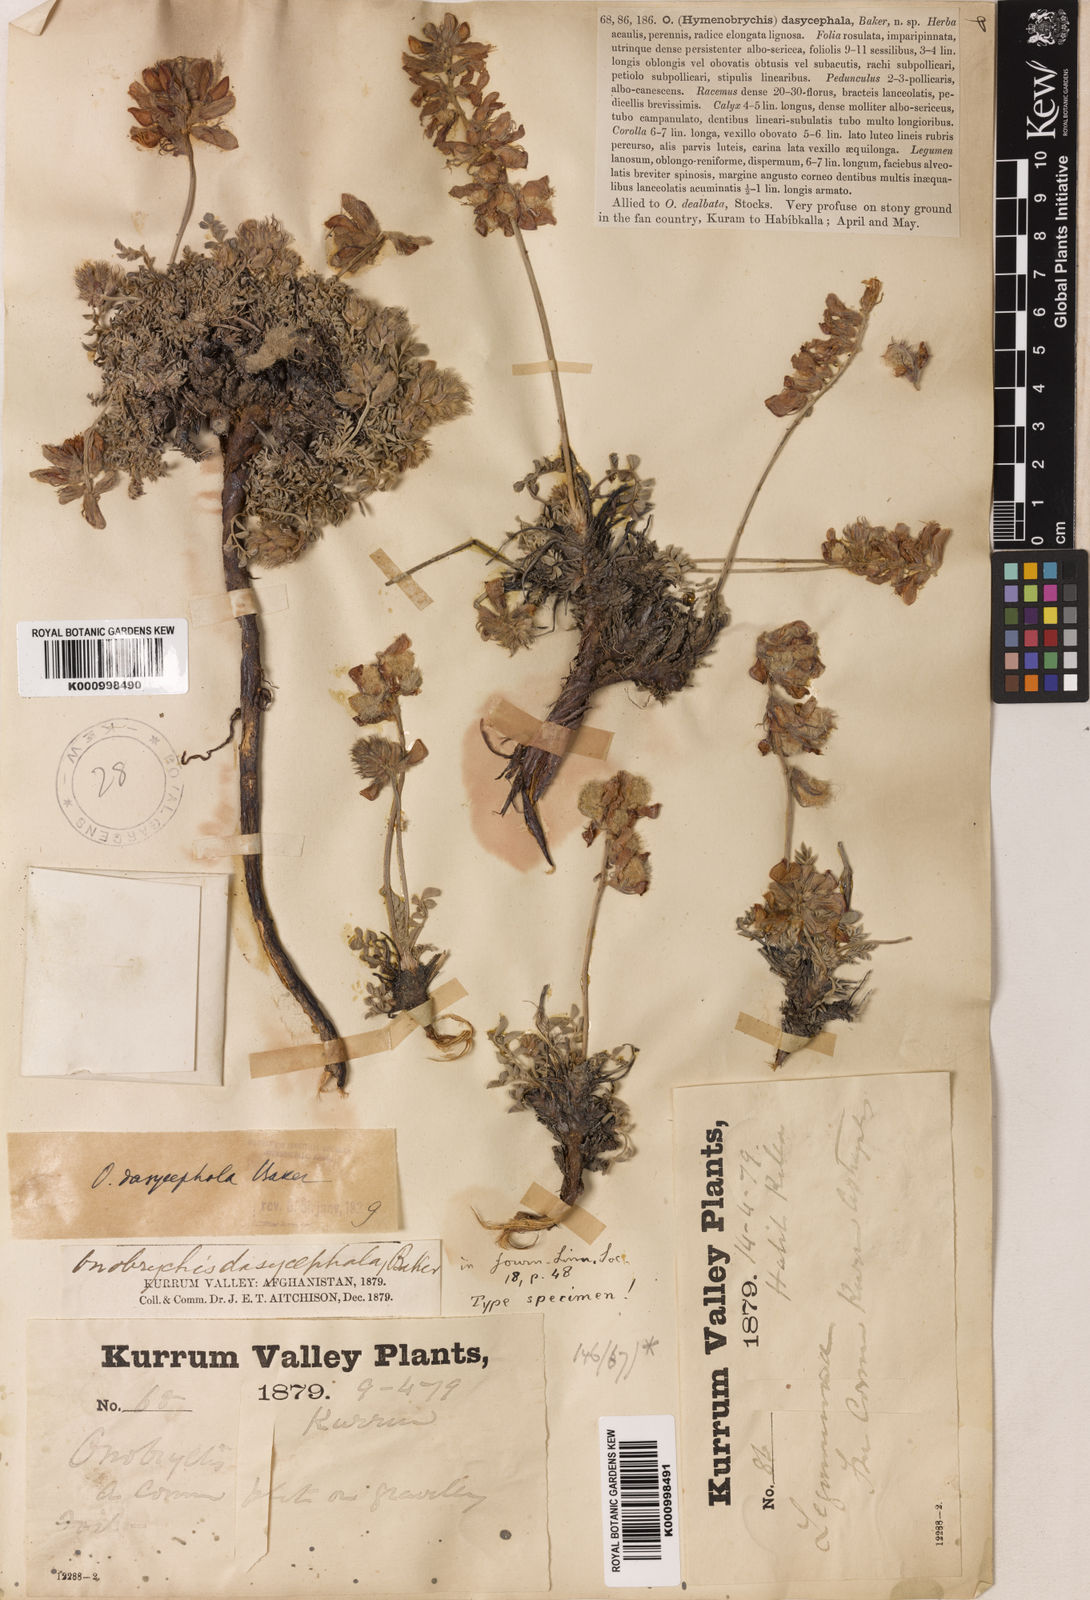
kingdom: Plantae
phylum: Tracheophyta
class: Magnoliopsida
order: Fabales
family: Fabaceae
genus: Onobrychis
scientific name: Onobrychis
